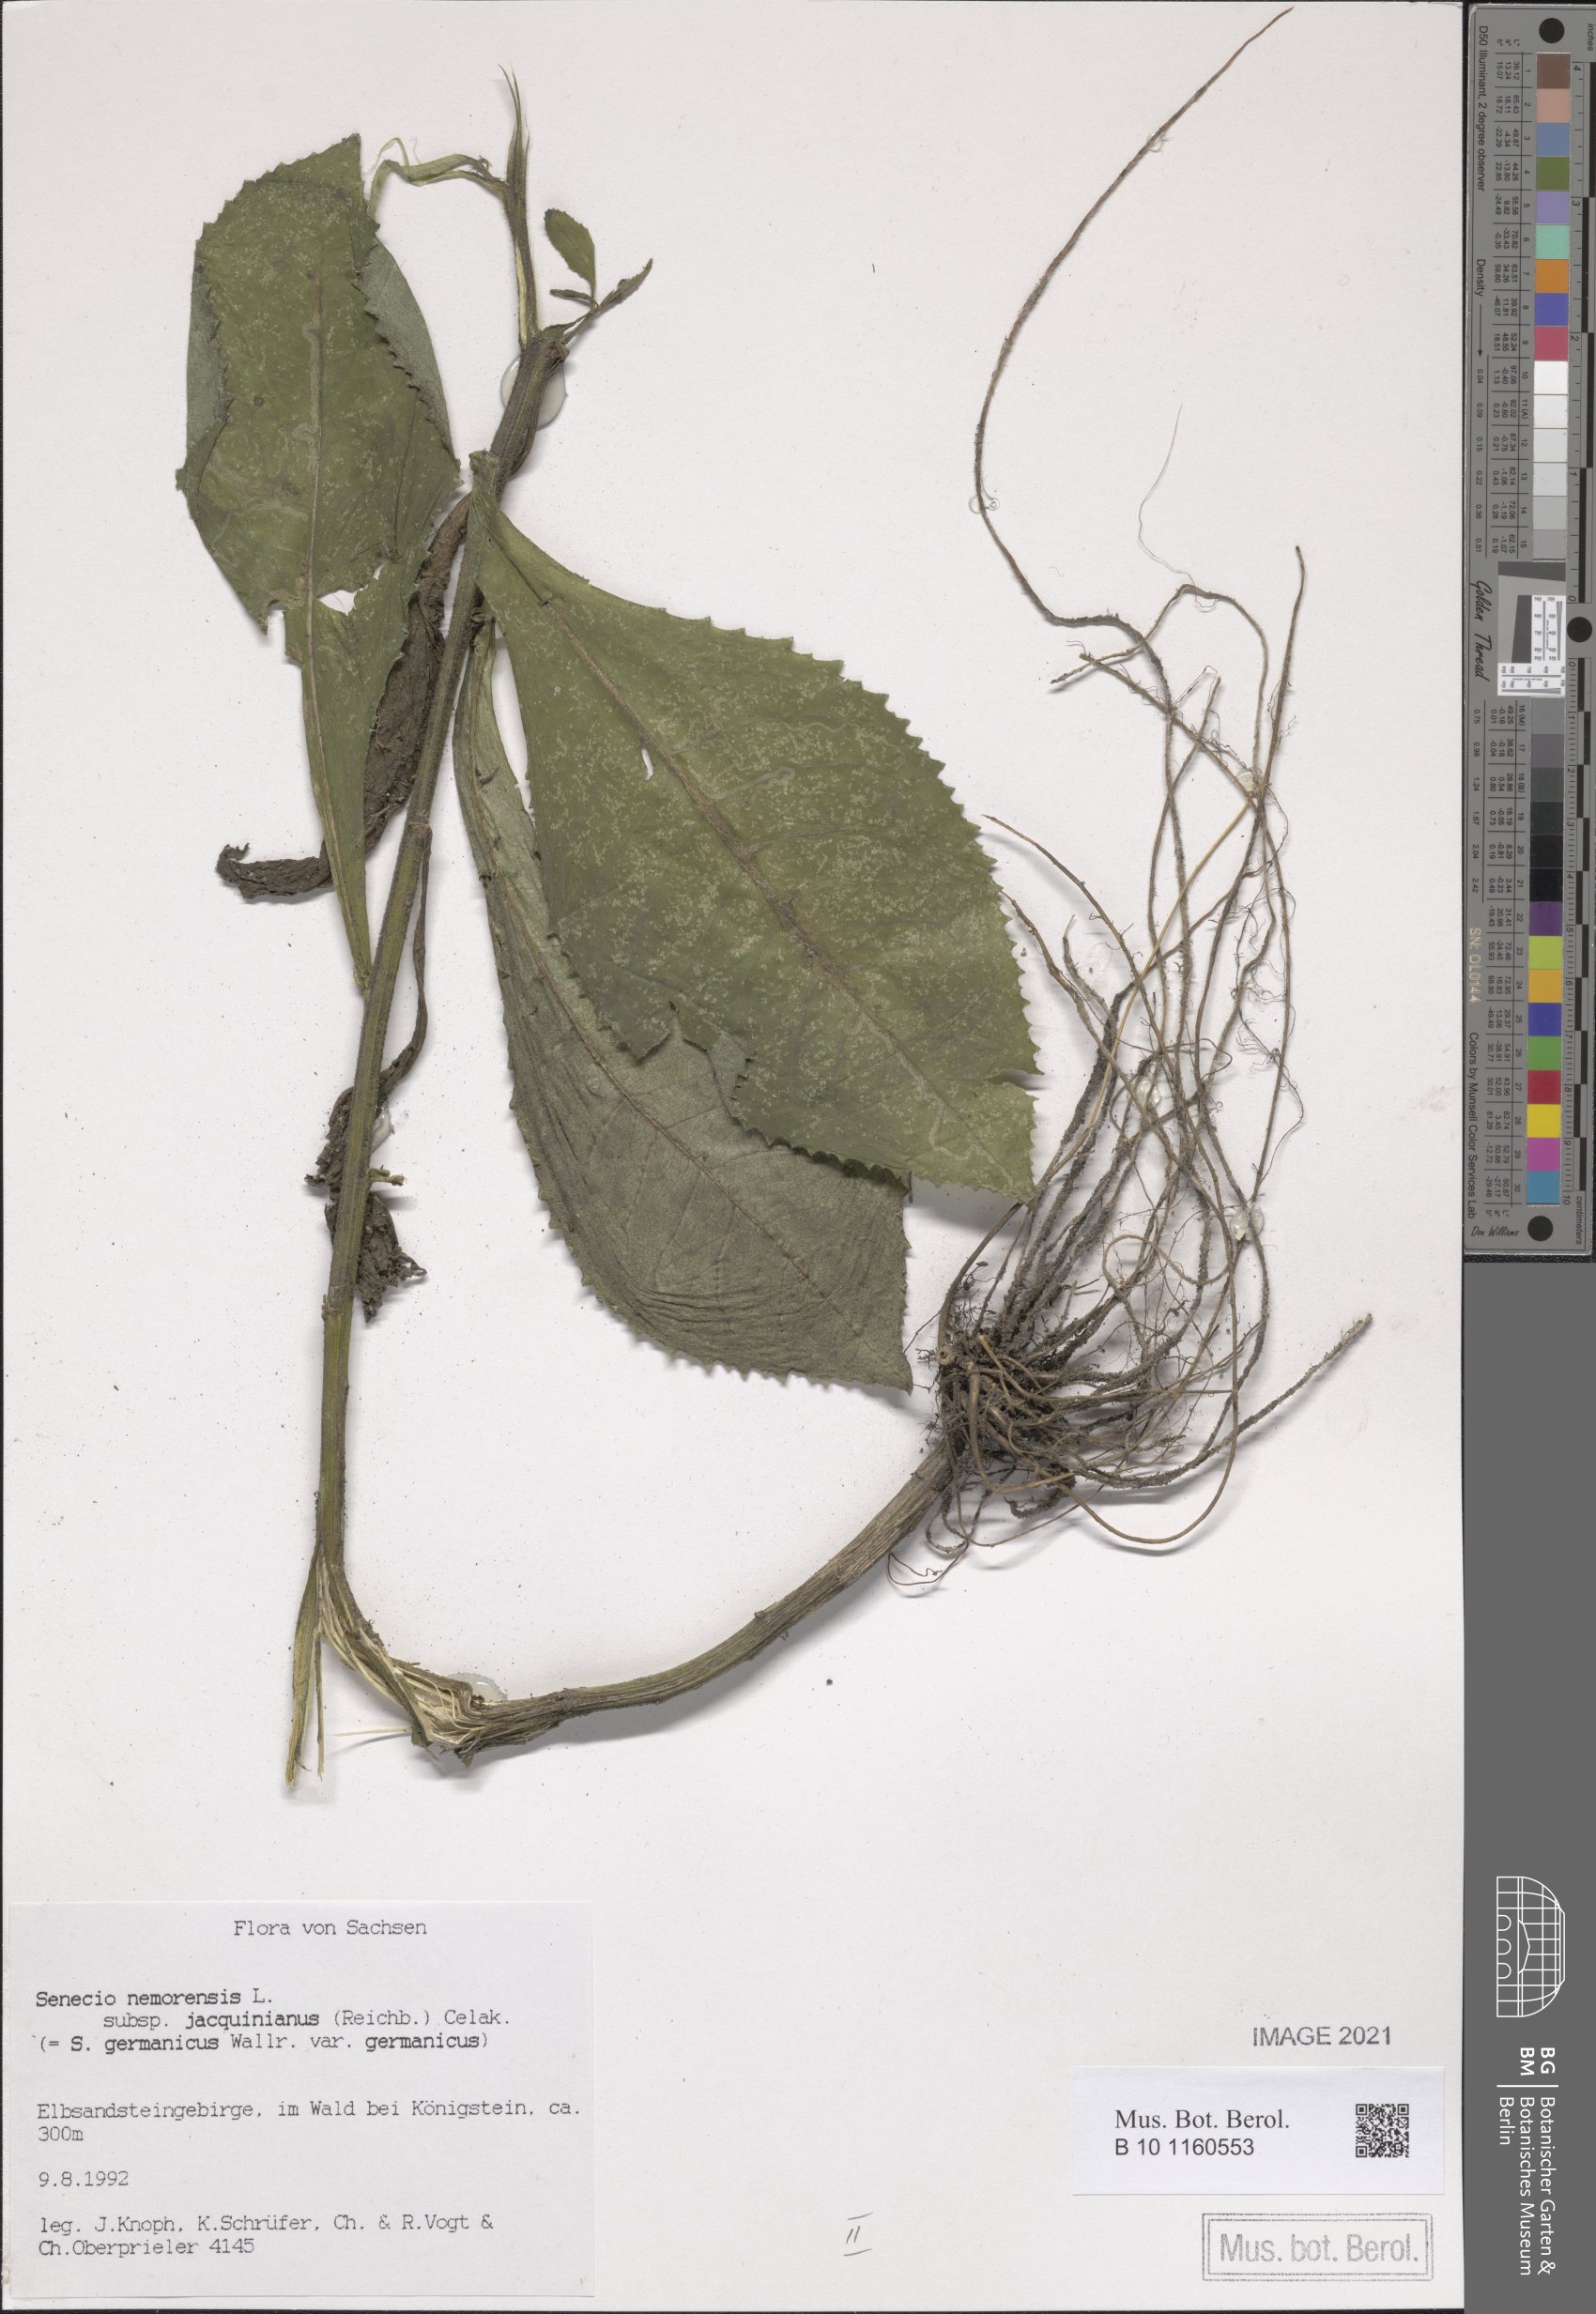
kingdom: Plantae
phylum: Tracheophyta
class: Magnoliopsida
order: Asterales
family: Asteraceae
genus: Senecio
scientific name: Senecio germanicus
